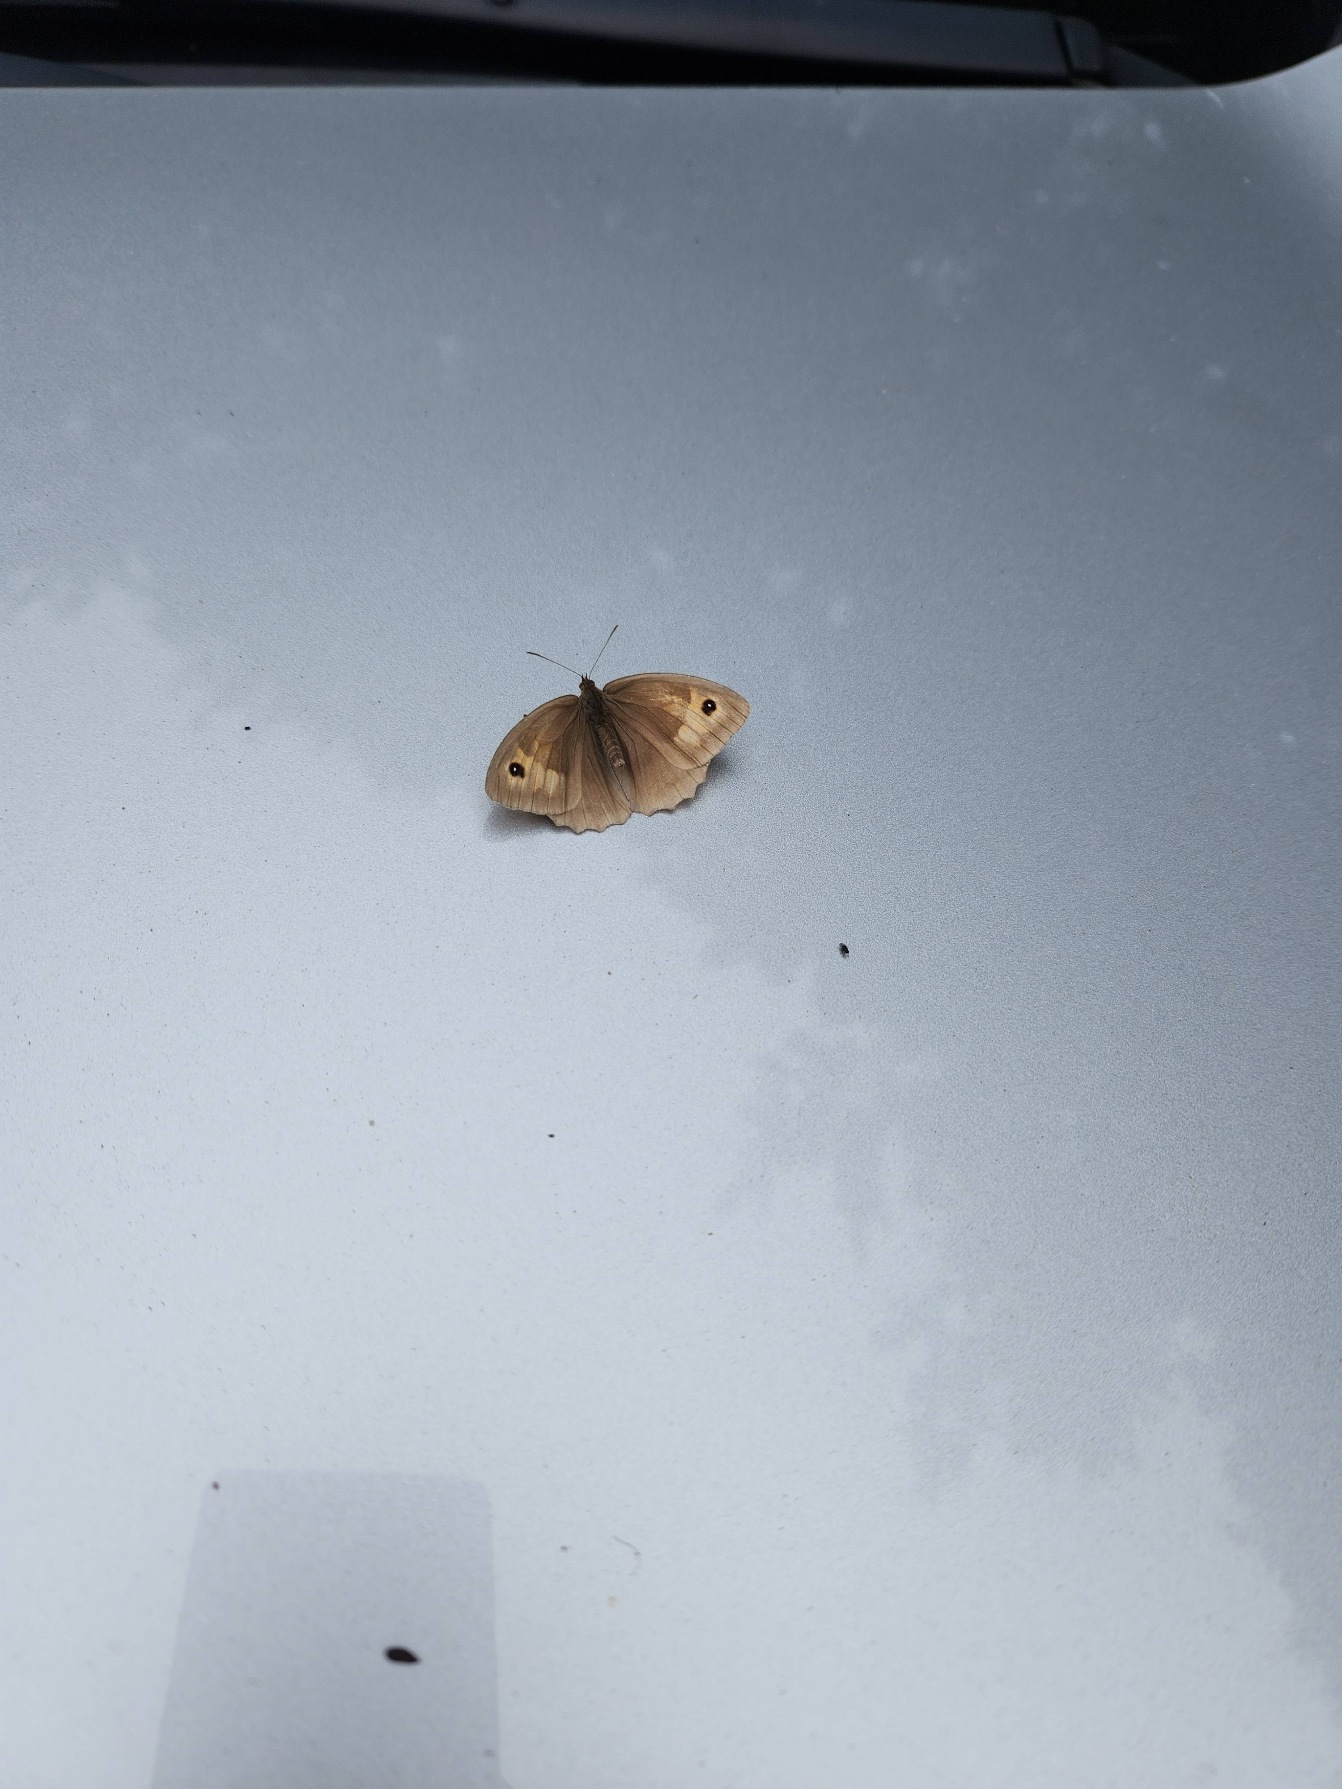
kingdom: Animalia
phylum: Arthropoda
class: Insecta
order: Lepidoptera
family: Nymphalidae
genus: Maniola
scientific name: Maniola jurtina
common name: Græsrandøje
